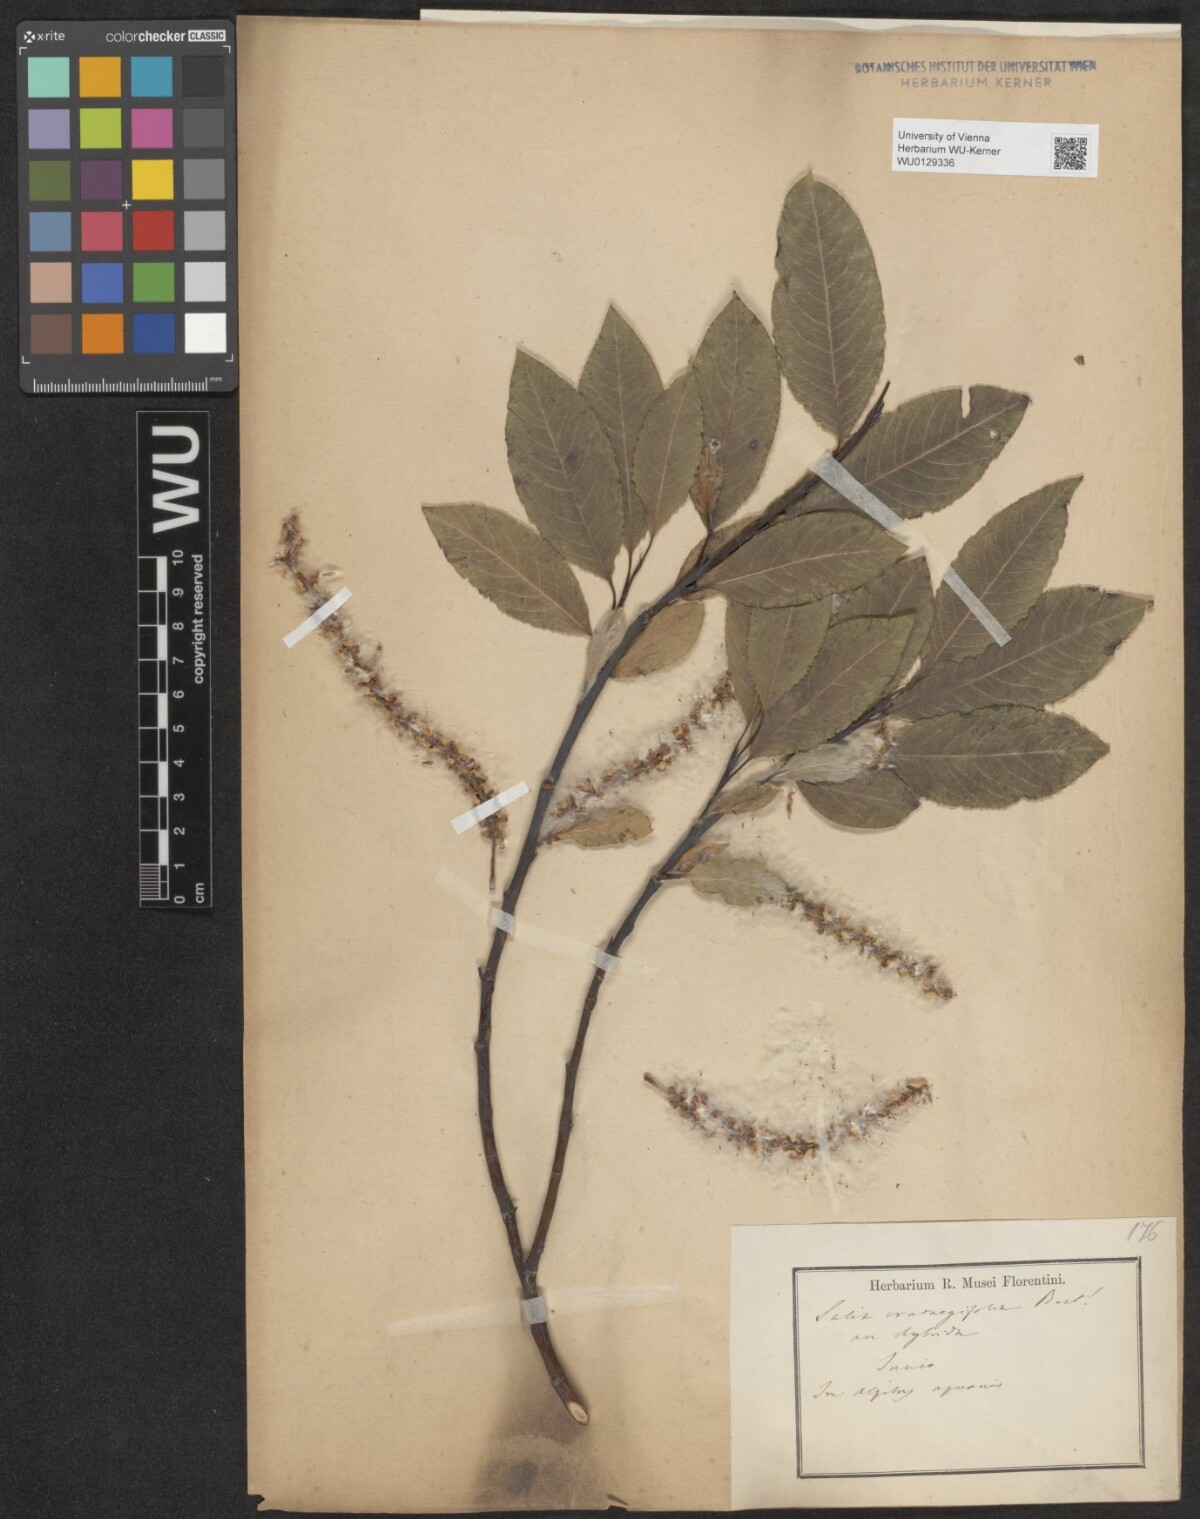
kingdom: Plantae
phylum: Tracheophyta
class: Magnoliopsida
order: Malpighiales
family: Salicaceae
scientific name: Salicaceae
